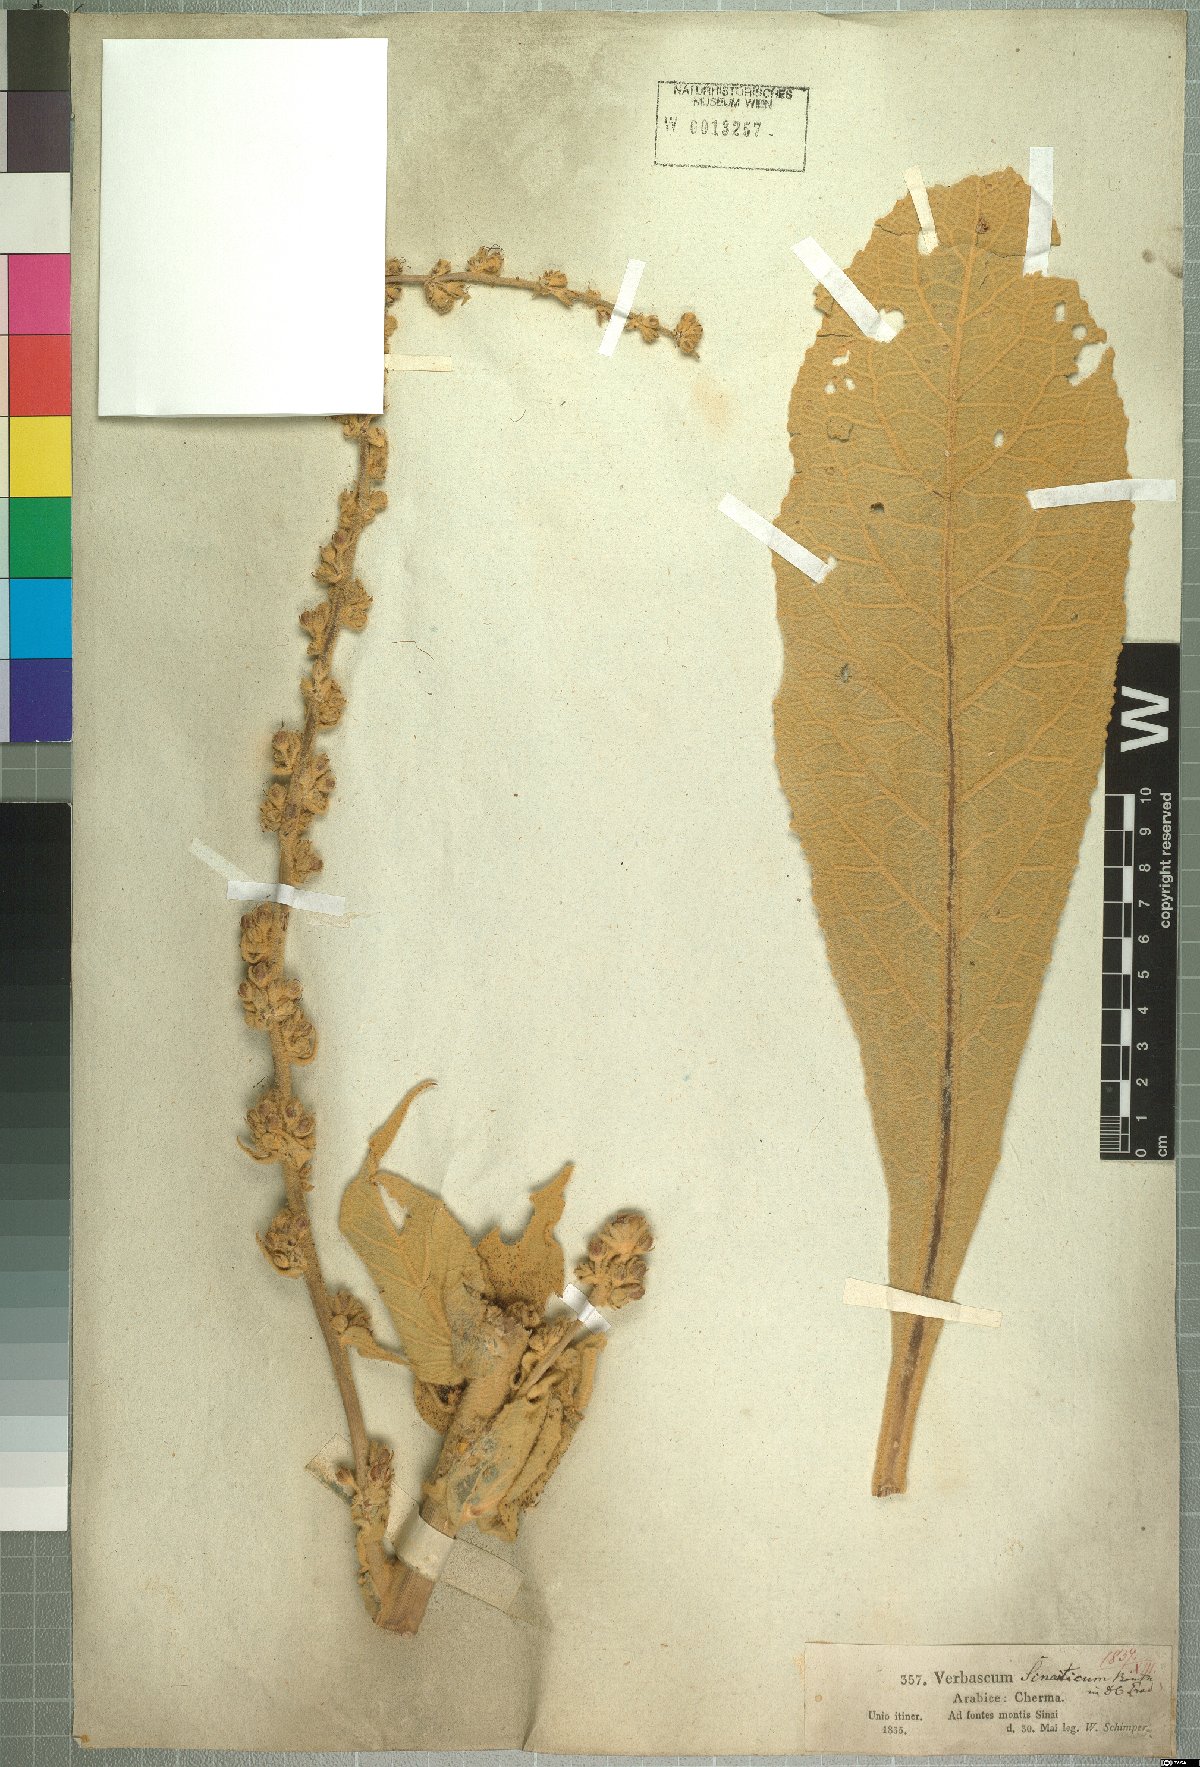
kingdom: Plantae
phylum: Tracheophyta
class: Magnoliopsida
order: Lamiales
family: Scrophulariaceae
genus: Verbascum
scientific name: Verbascum sinaiticum
